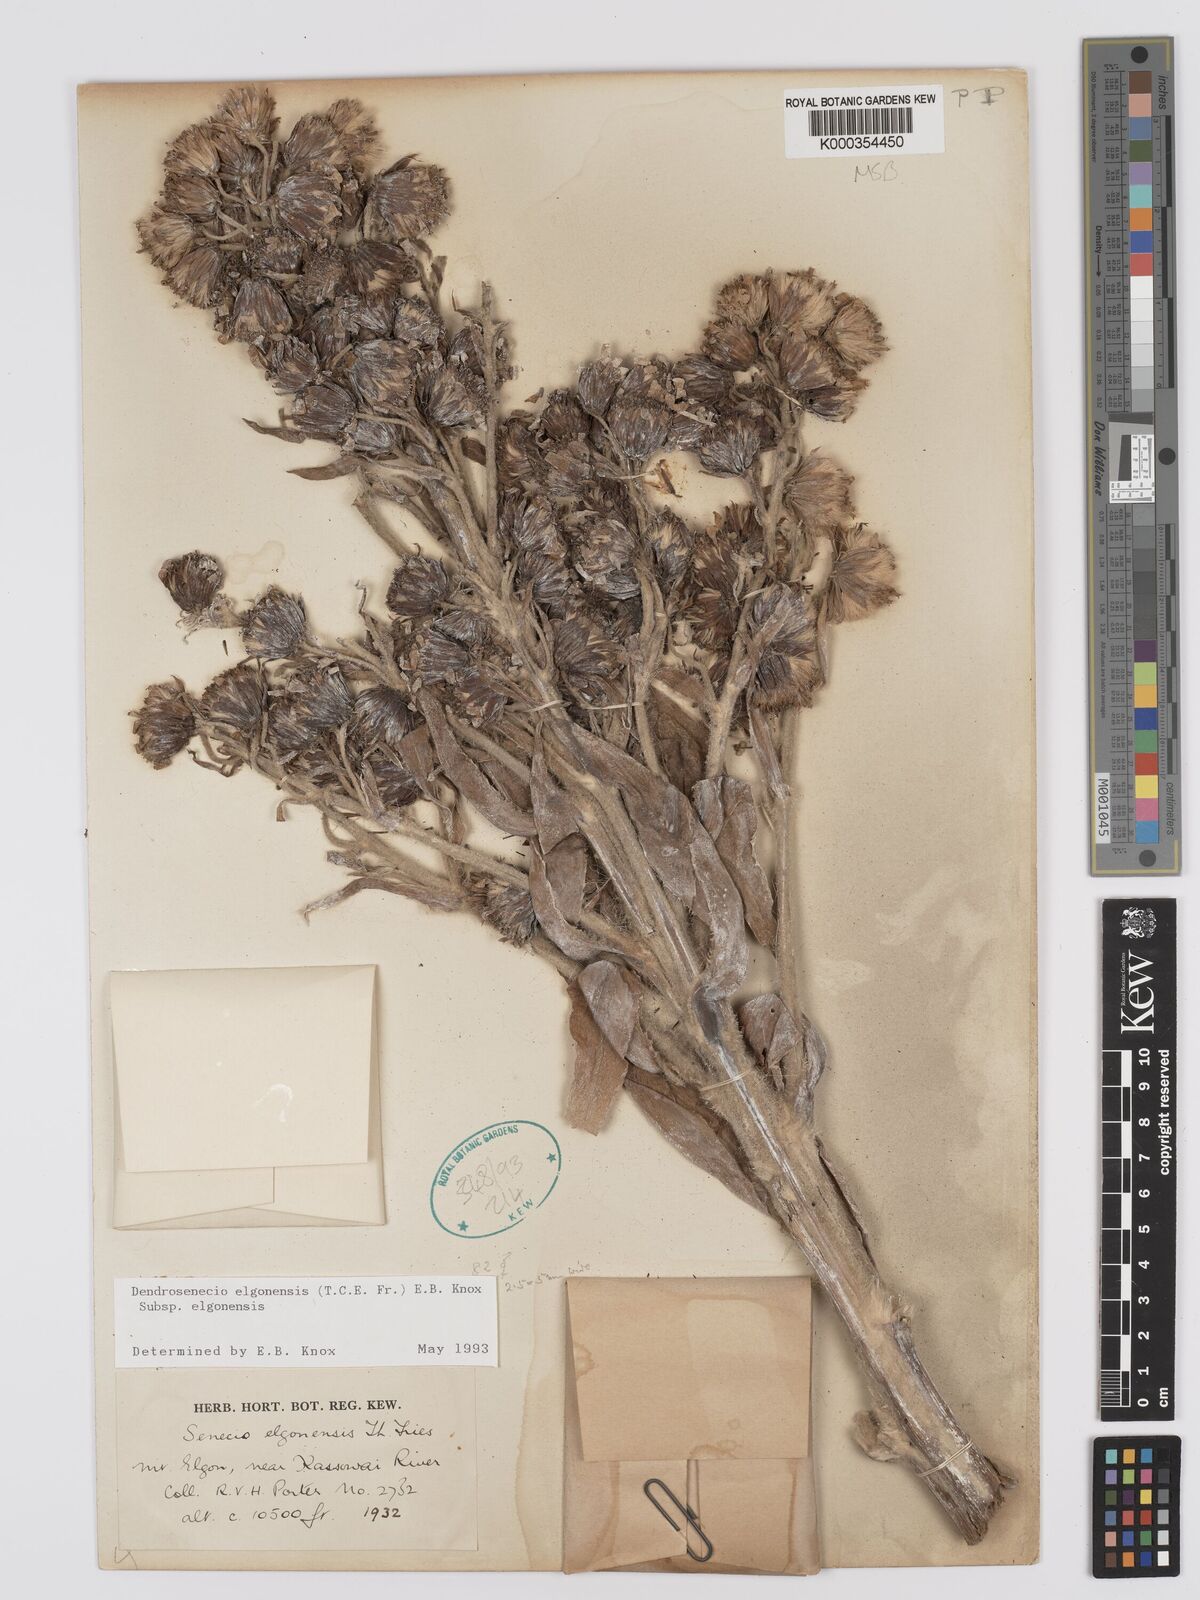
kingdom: Plantae
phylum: Tracheophyta
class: Magnoliopsida
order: Asterales
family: Asteraceae
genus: Dendrosenecio
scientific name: Dendrosenecio elgonensis
